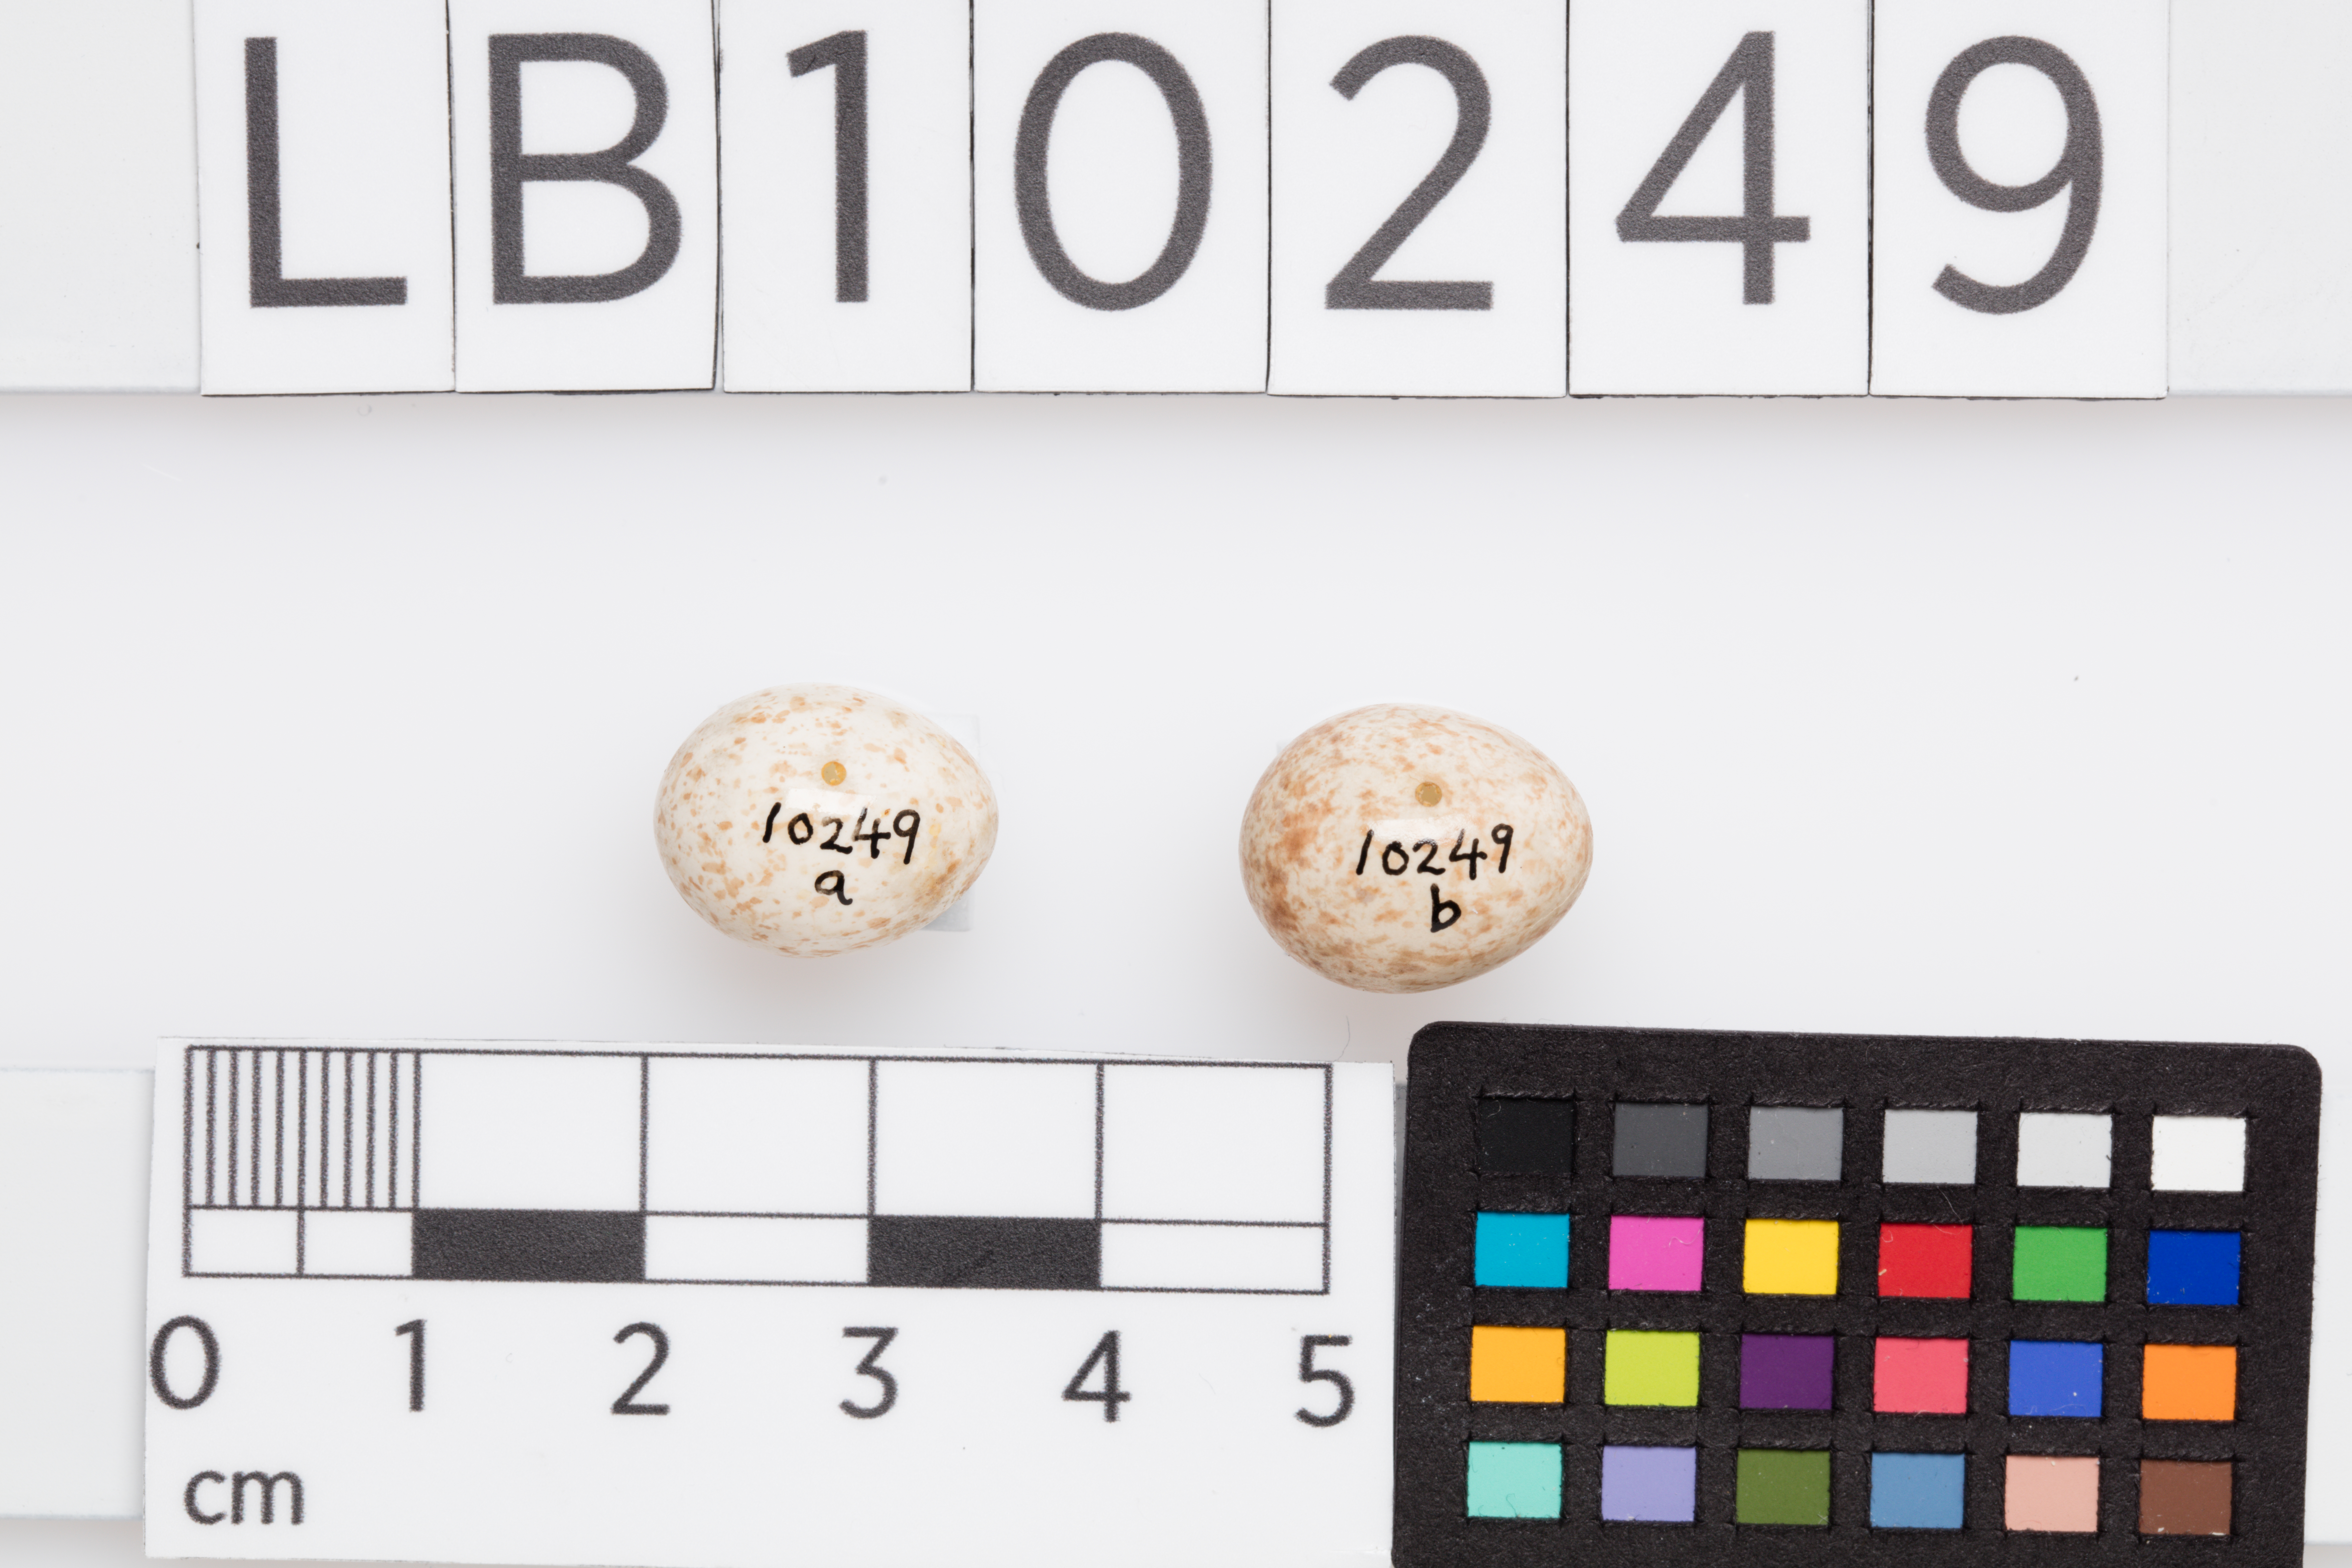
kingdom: Animalia
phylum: Chordata
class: Aves
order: Passeriformes
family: Phylloscopidae
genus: Phylloscopus
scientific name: Phylloscopus trochilus
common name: Willow warbler
